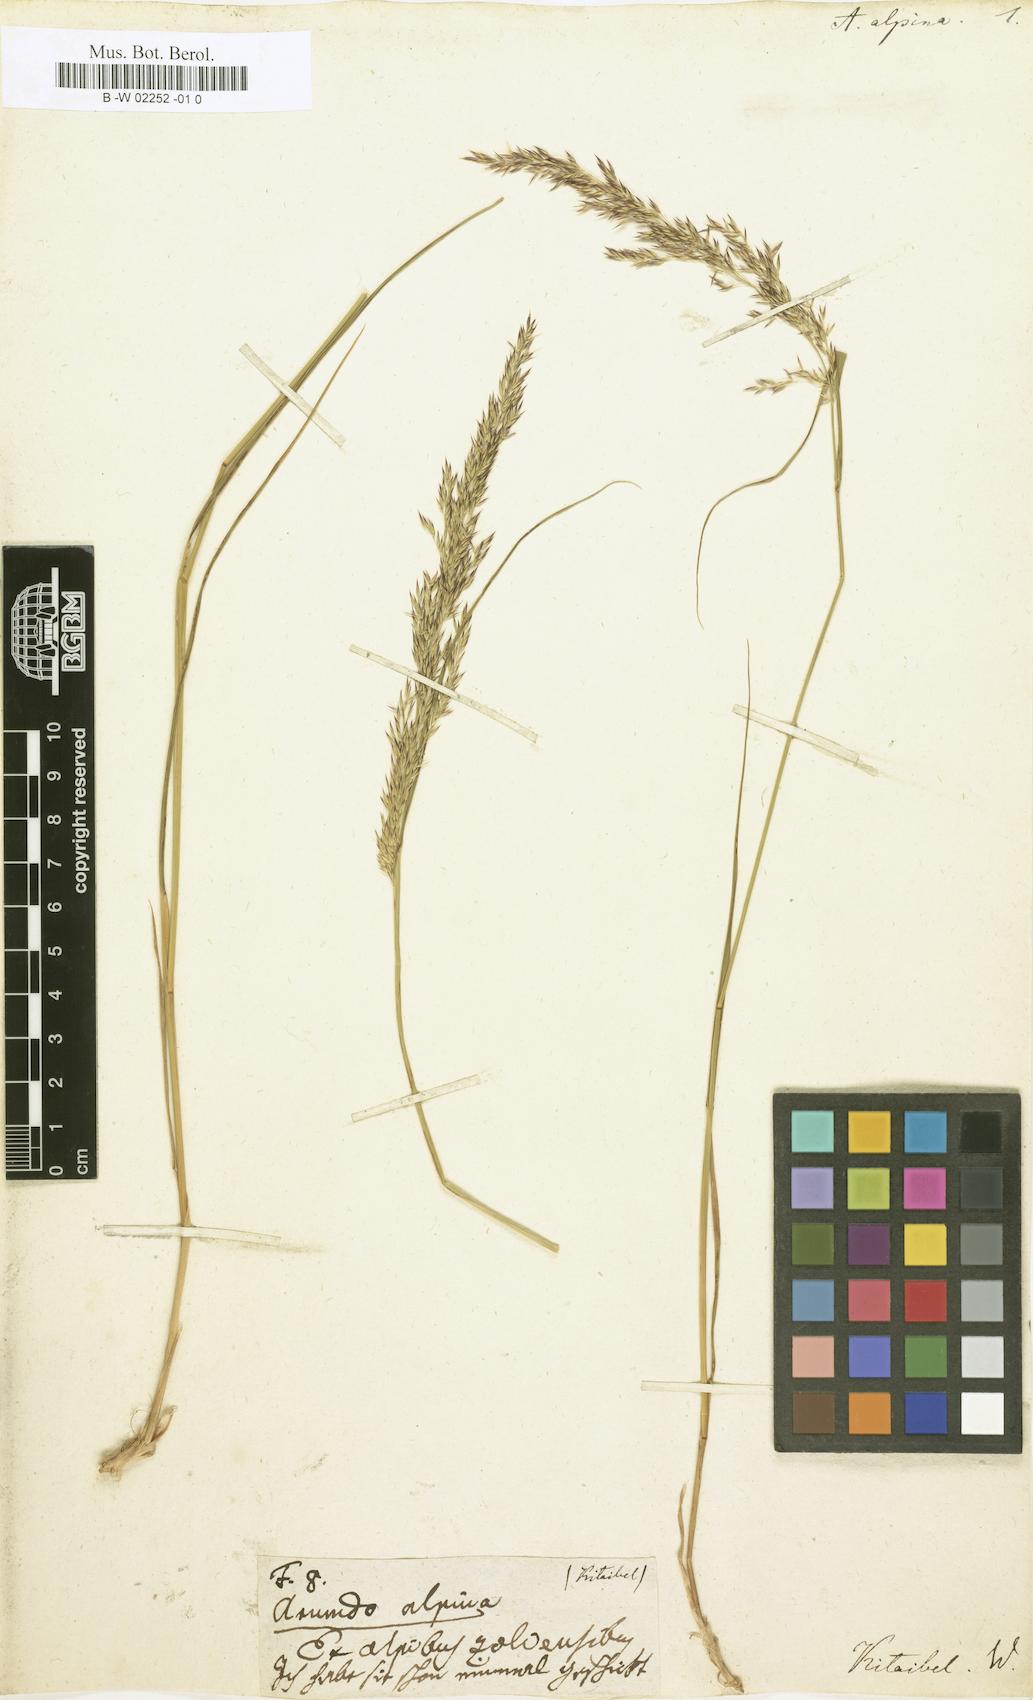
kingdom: Plantae
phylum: Tracheophyta
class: Liliopsida
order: Poales
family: Poaceae
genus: Calamagrostis
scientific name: Calamagrostis villosa
